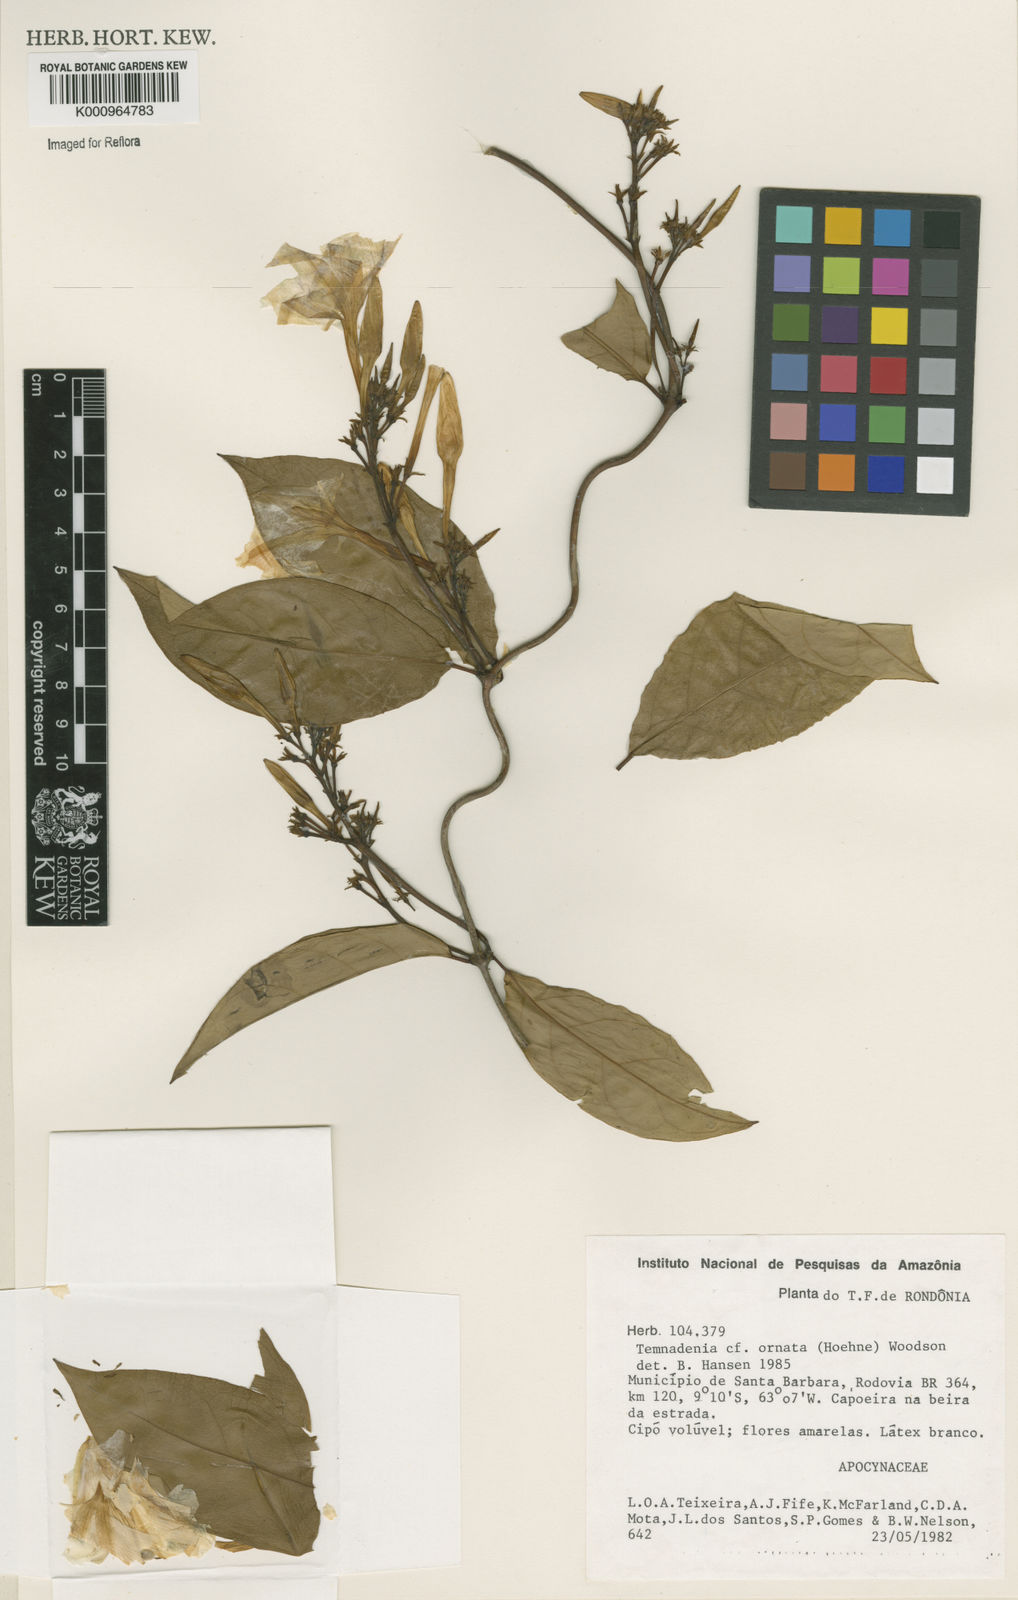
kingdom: Plantae
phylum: Tracheophyta
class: Magnoliopsida
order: Gentianales
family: Apocynaceae
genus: Prestonia
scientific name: Prestonia ornata
